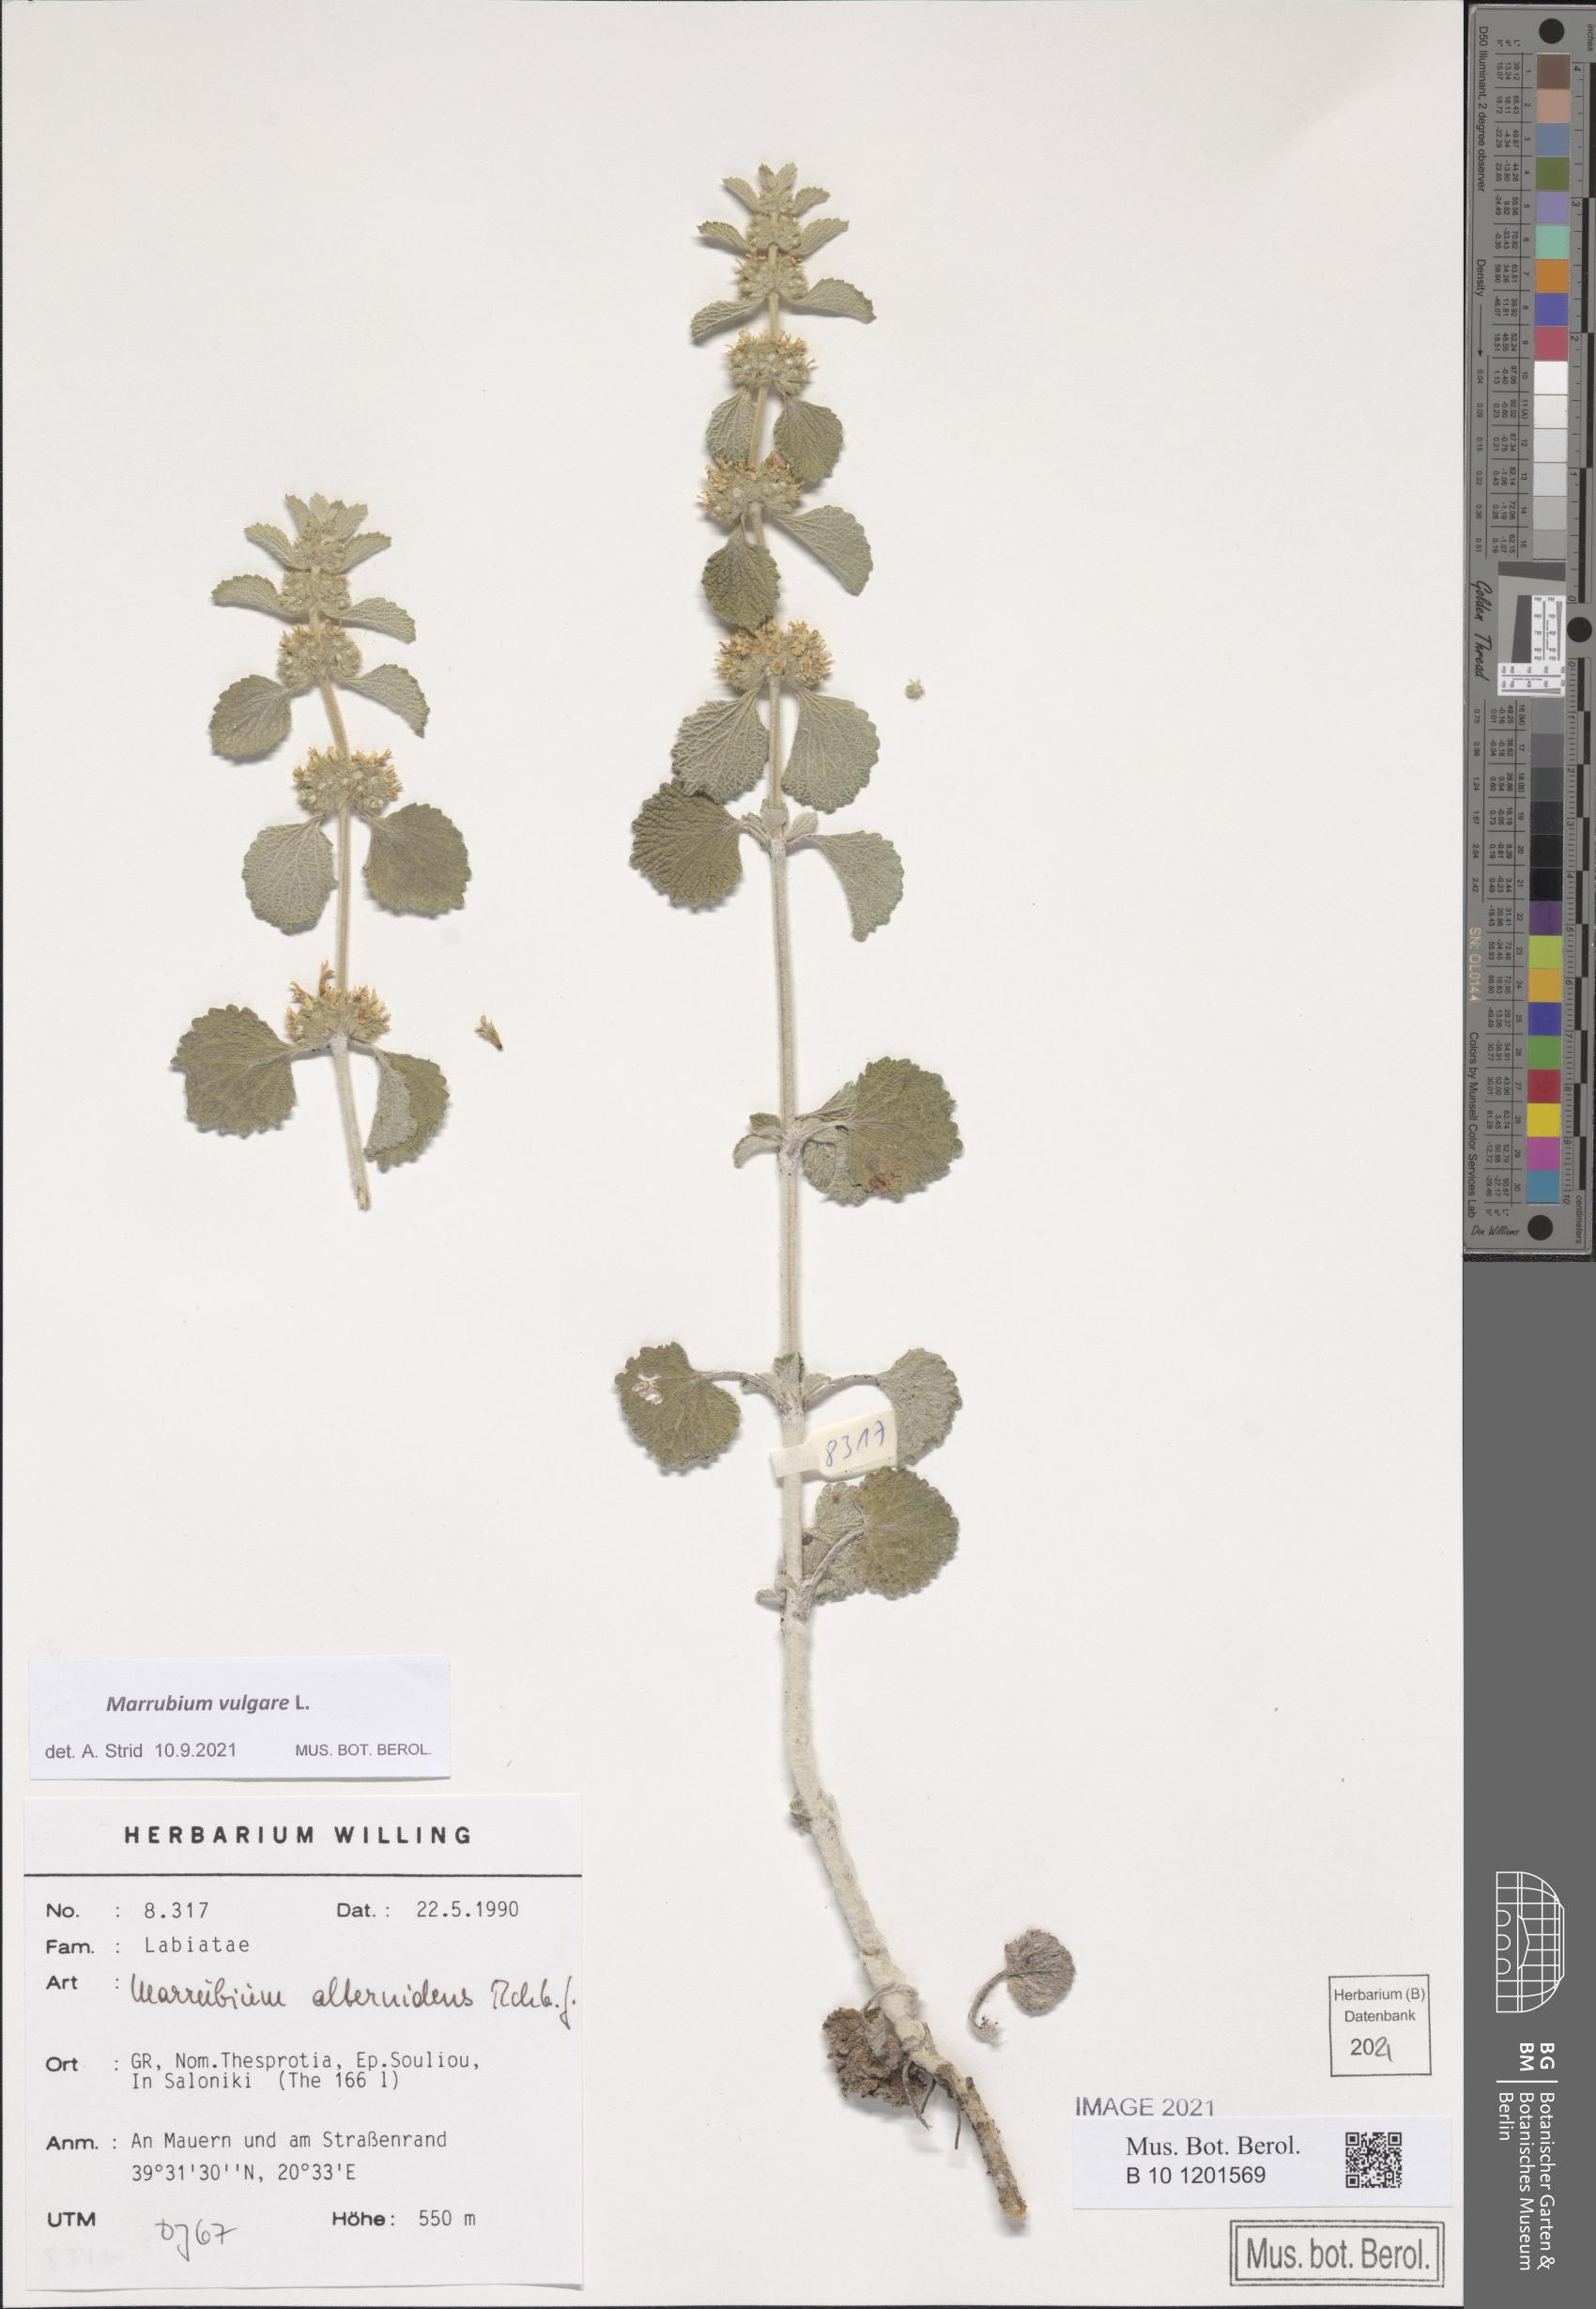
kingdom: Plantae
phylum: Tracheophyta
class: Magnoliopsida
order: Lamiales
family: Lamiaceae
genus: Marrubium
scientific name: Marrubium vulgare
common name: Horehound
